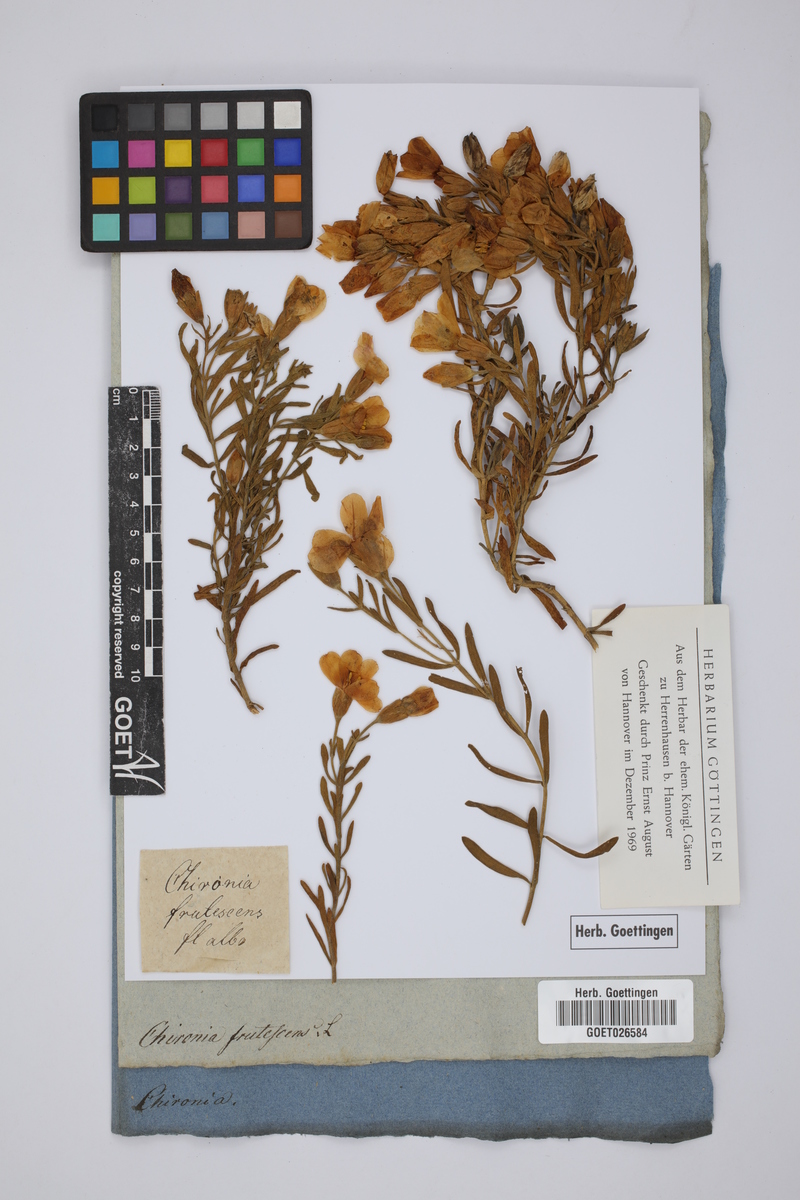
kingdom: Plantae
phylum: Tracheophyta
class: Magnoliopsida
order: Gentianales
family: Gentianaceae
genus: Orphium
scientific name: Orphium frutescens
